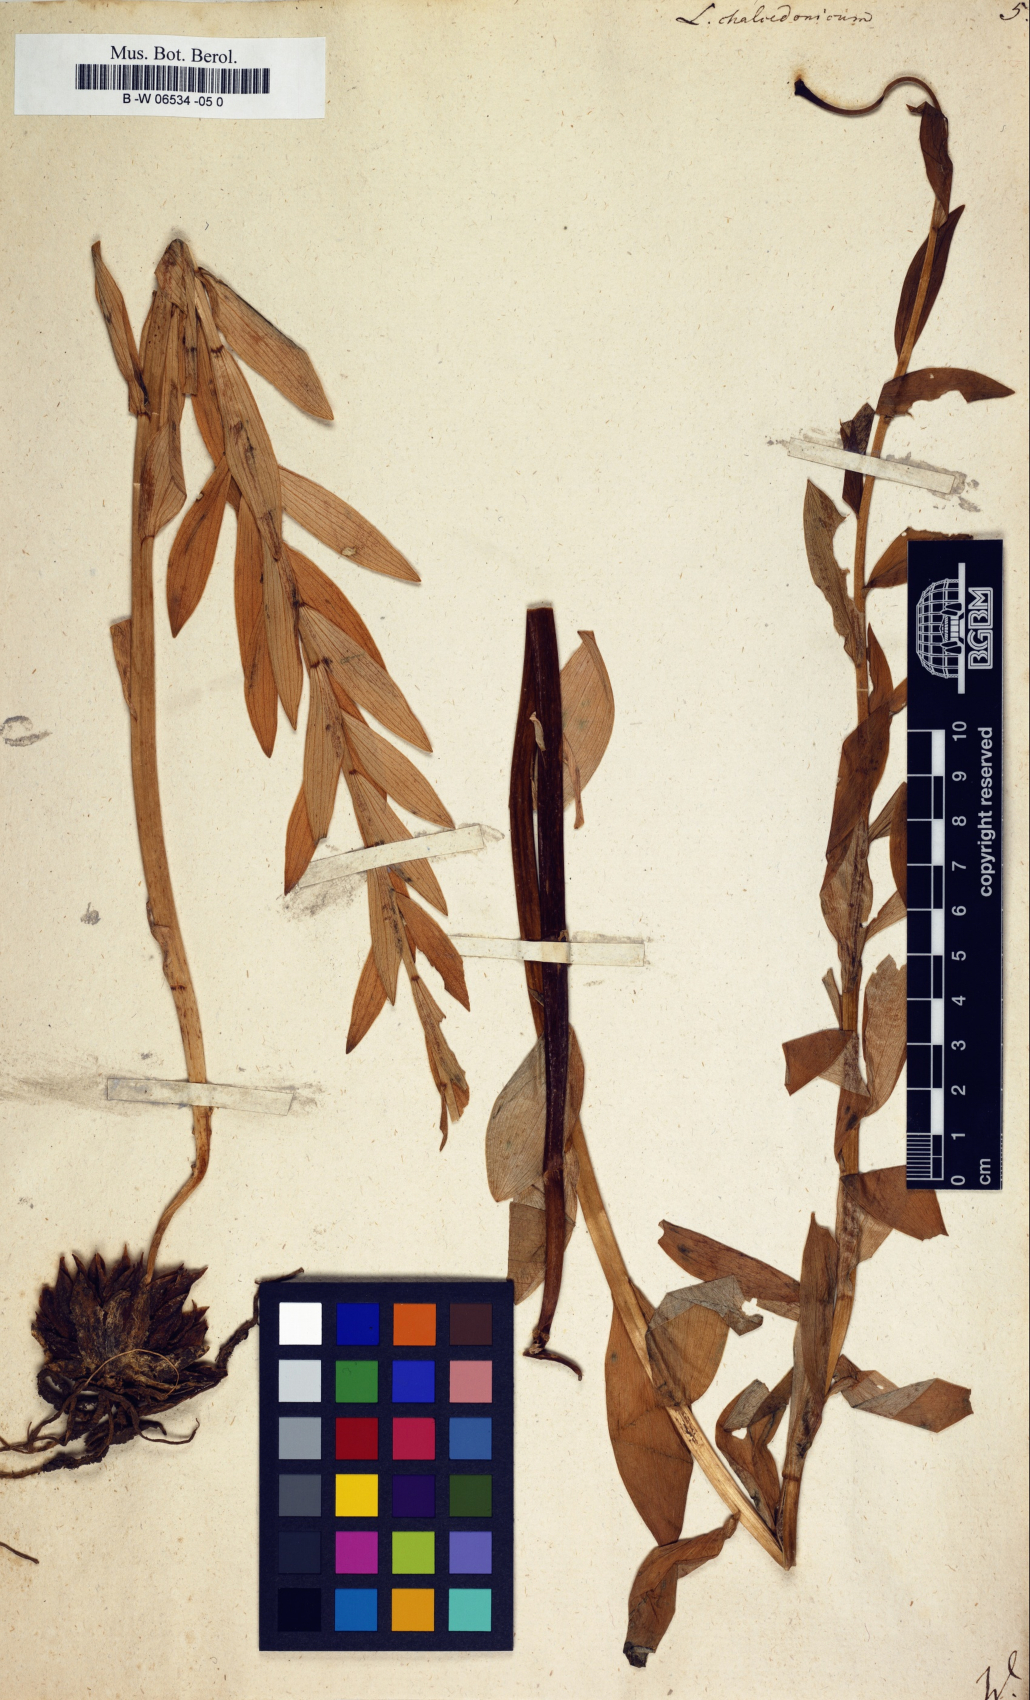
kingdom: Plantae
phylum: Tracheophyta
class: Liliopsida
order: Liliales
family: Liliaceae
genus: Lilium
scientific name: Lilium chalcedonicum
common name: Red martagon of constantinople
